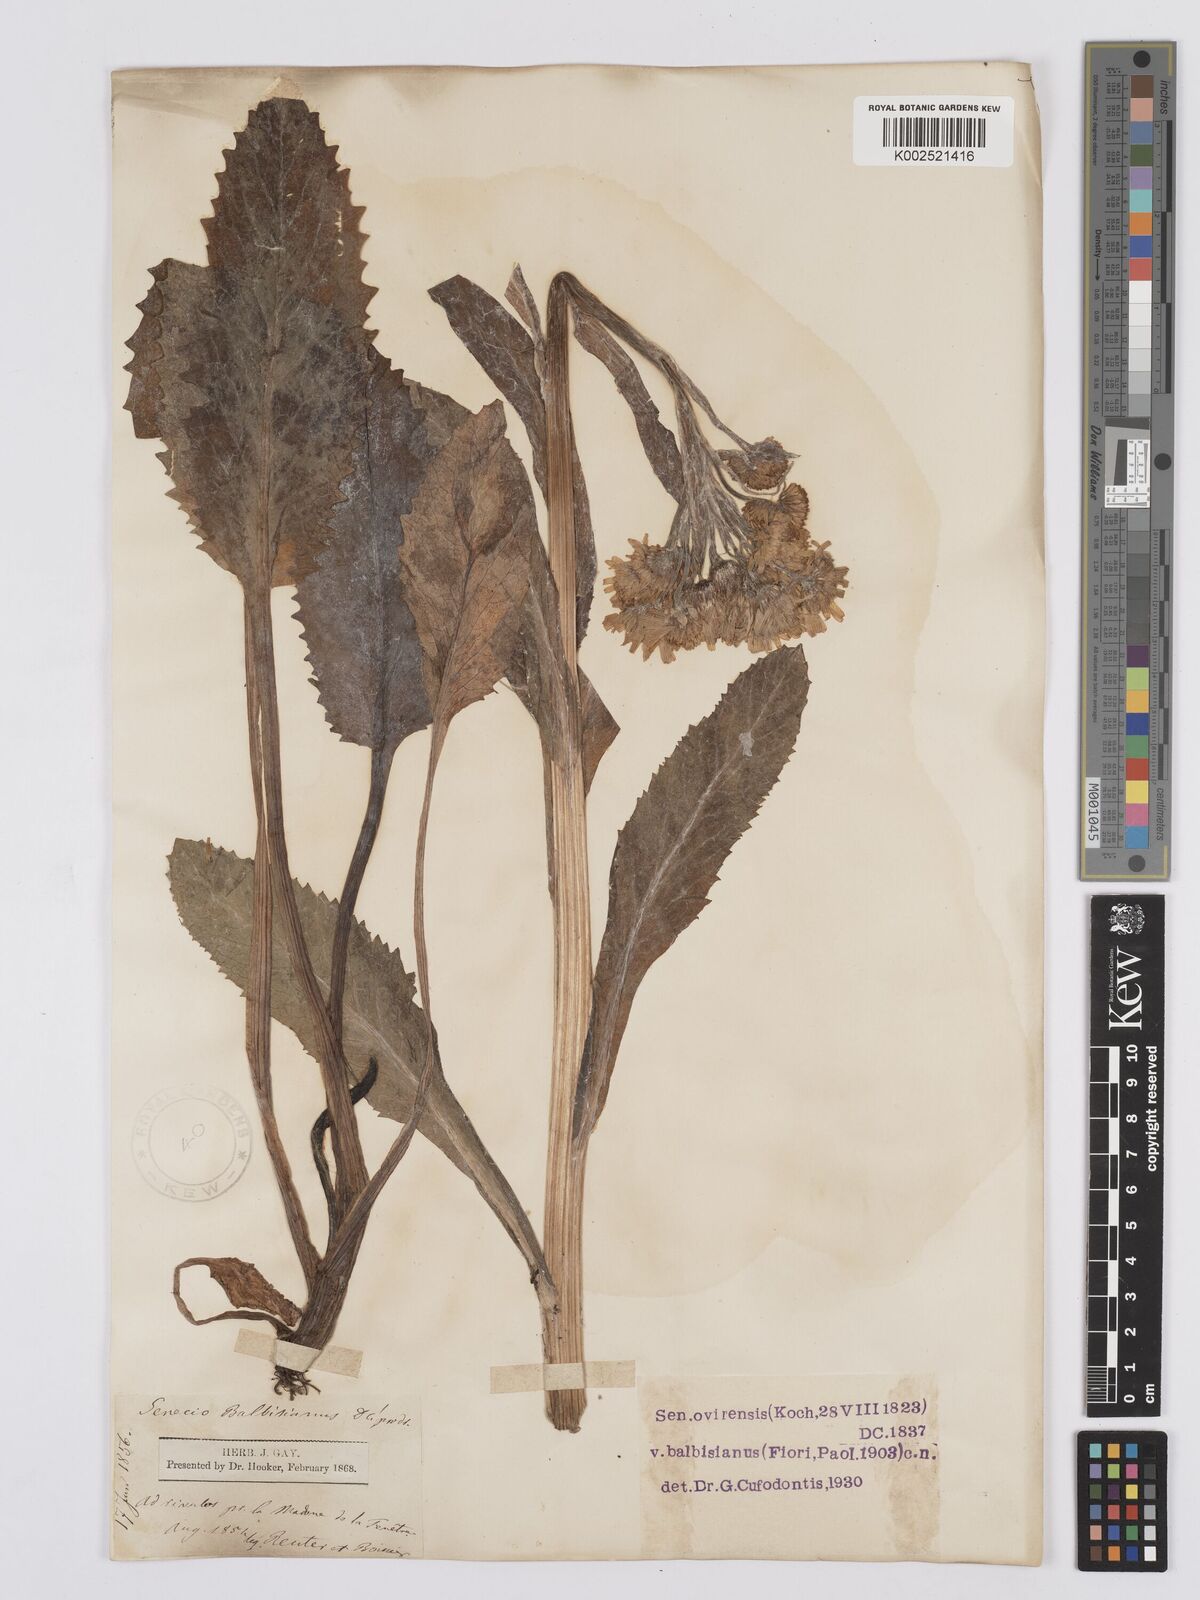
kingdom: Plantae
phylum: Tracheophyta
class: Magnoliopsida
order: Asterales
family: Asteraceae
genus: Tephroseris
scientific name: Tephroseris balbisiana
